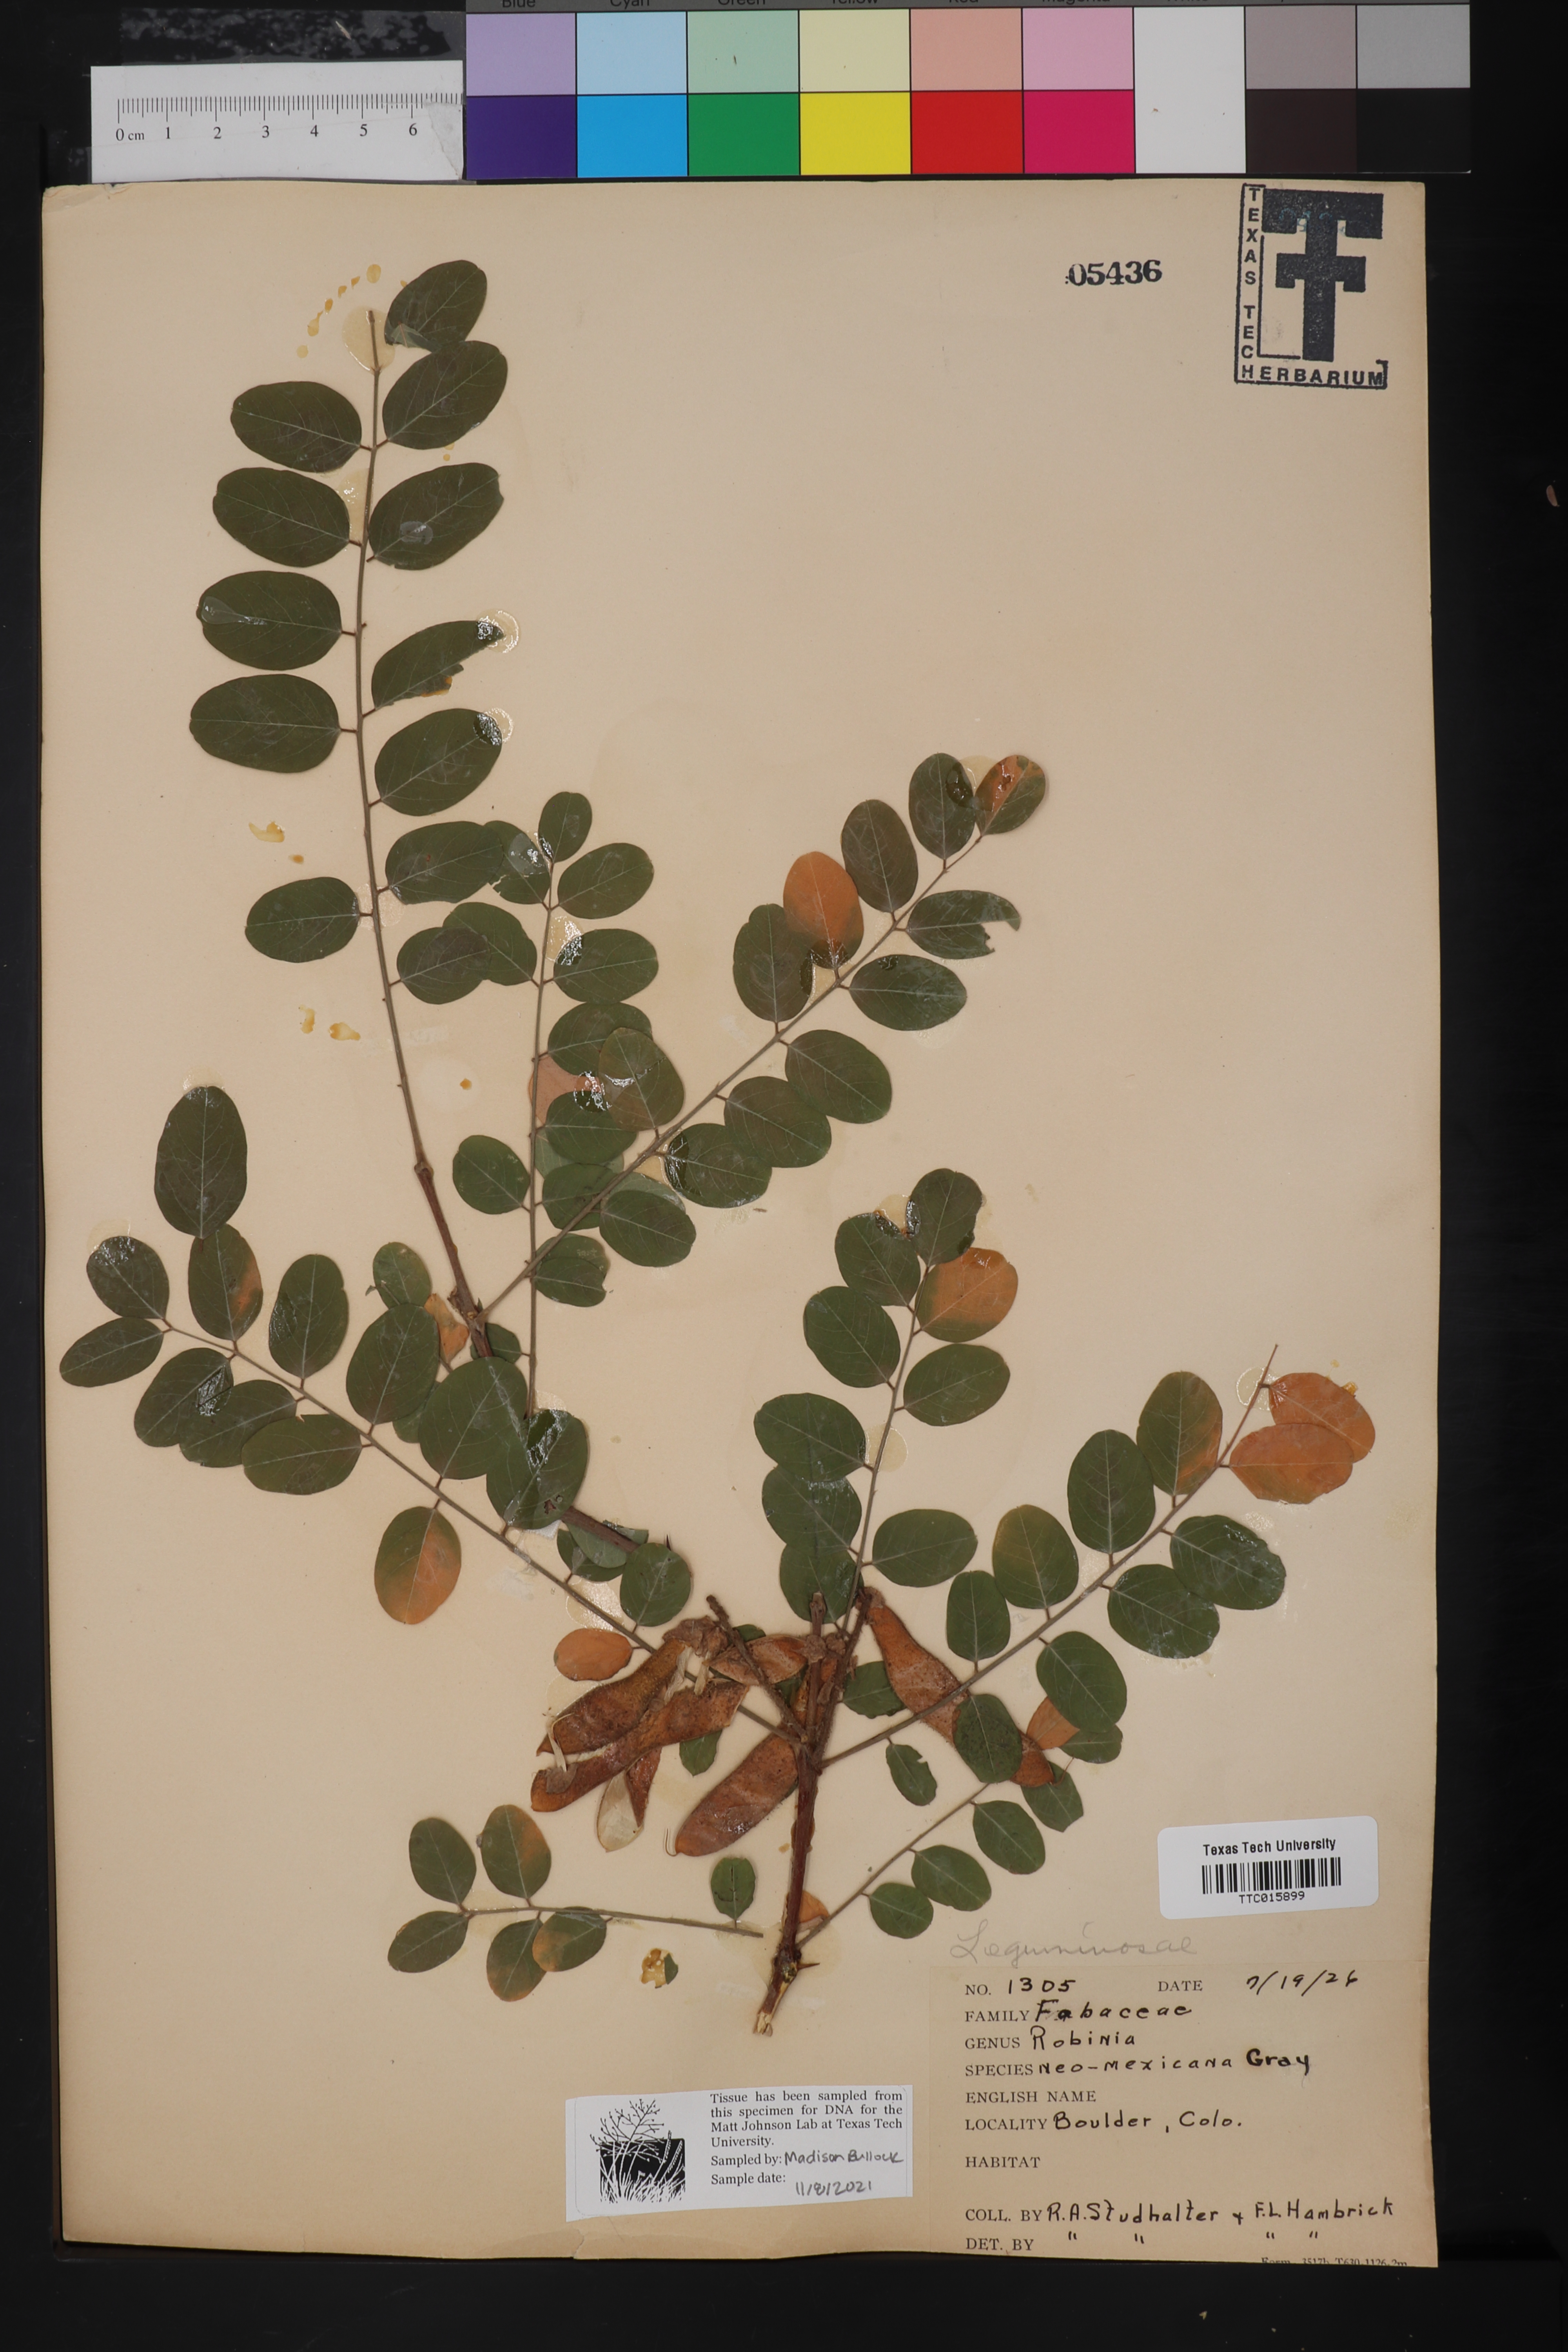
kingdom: Plantae
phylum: Tracheophyta
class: Magnoliopsida
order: Fabales
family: Fabaceae
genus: Robinia
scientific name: Robinia neomexicana
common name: New mexico locust
